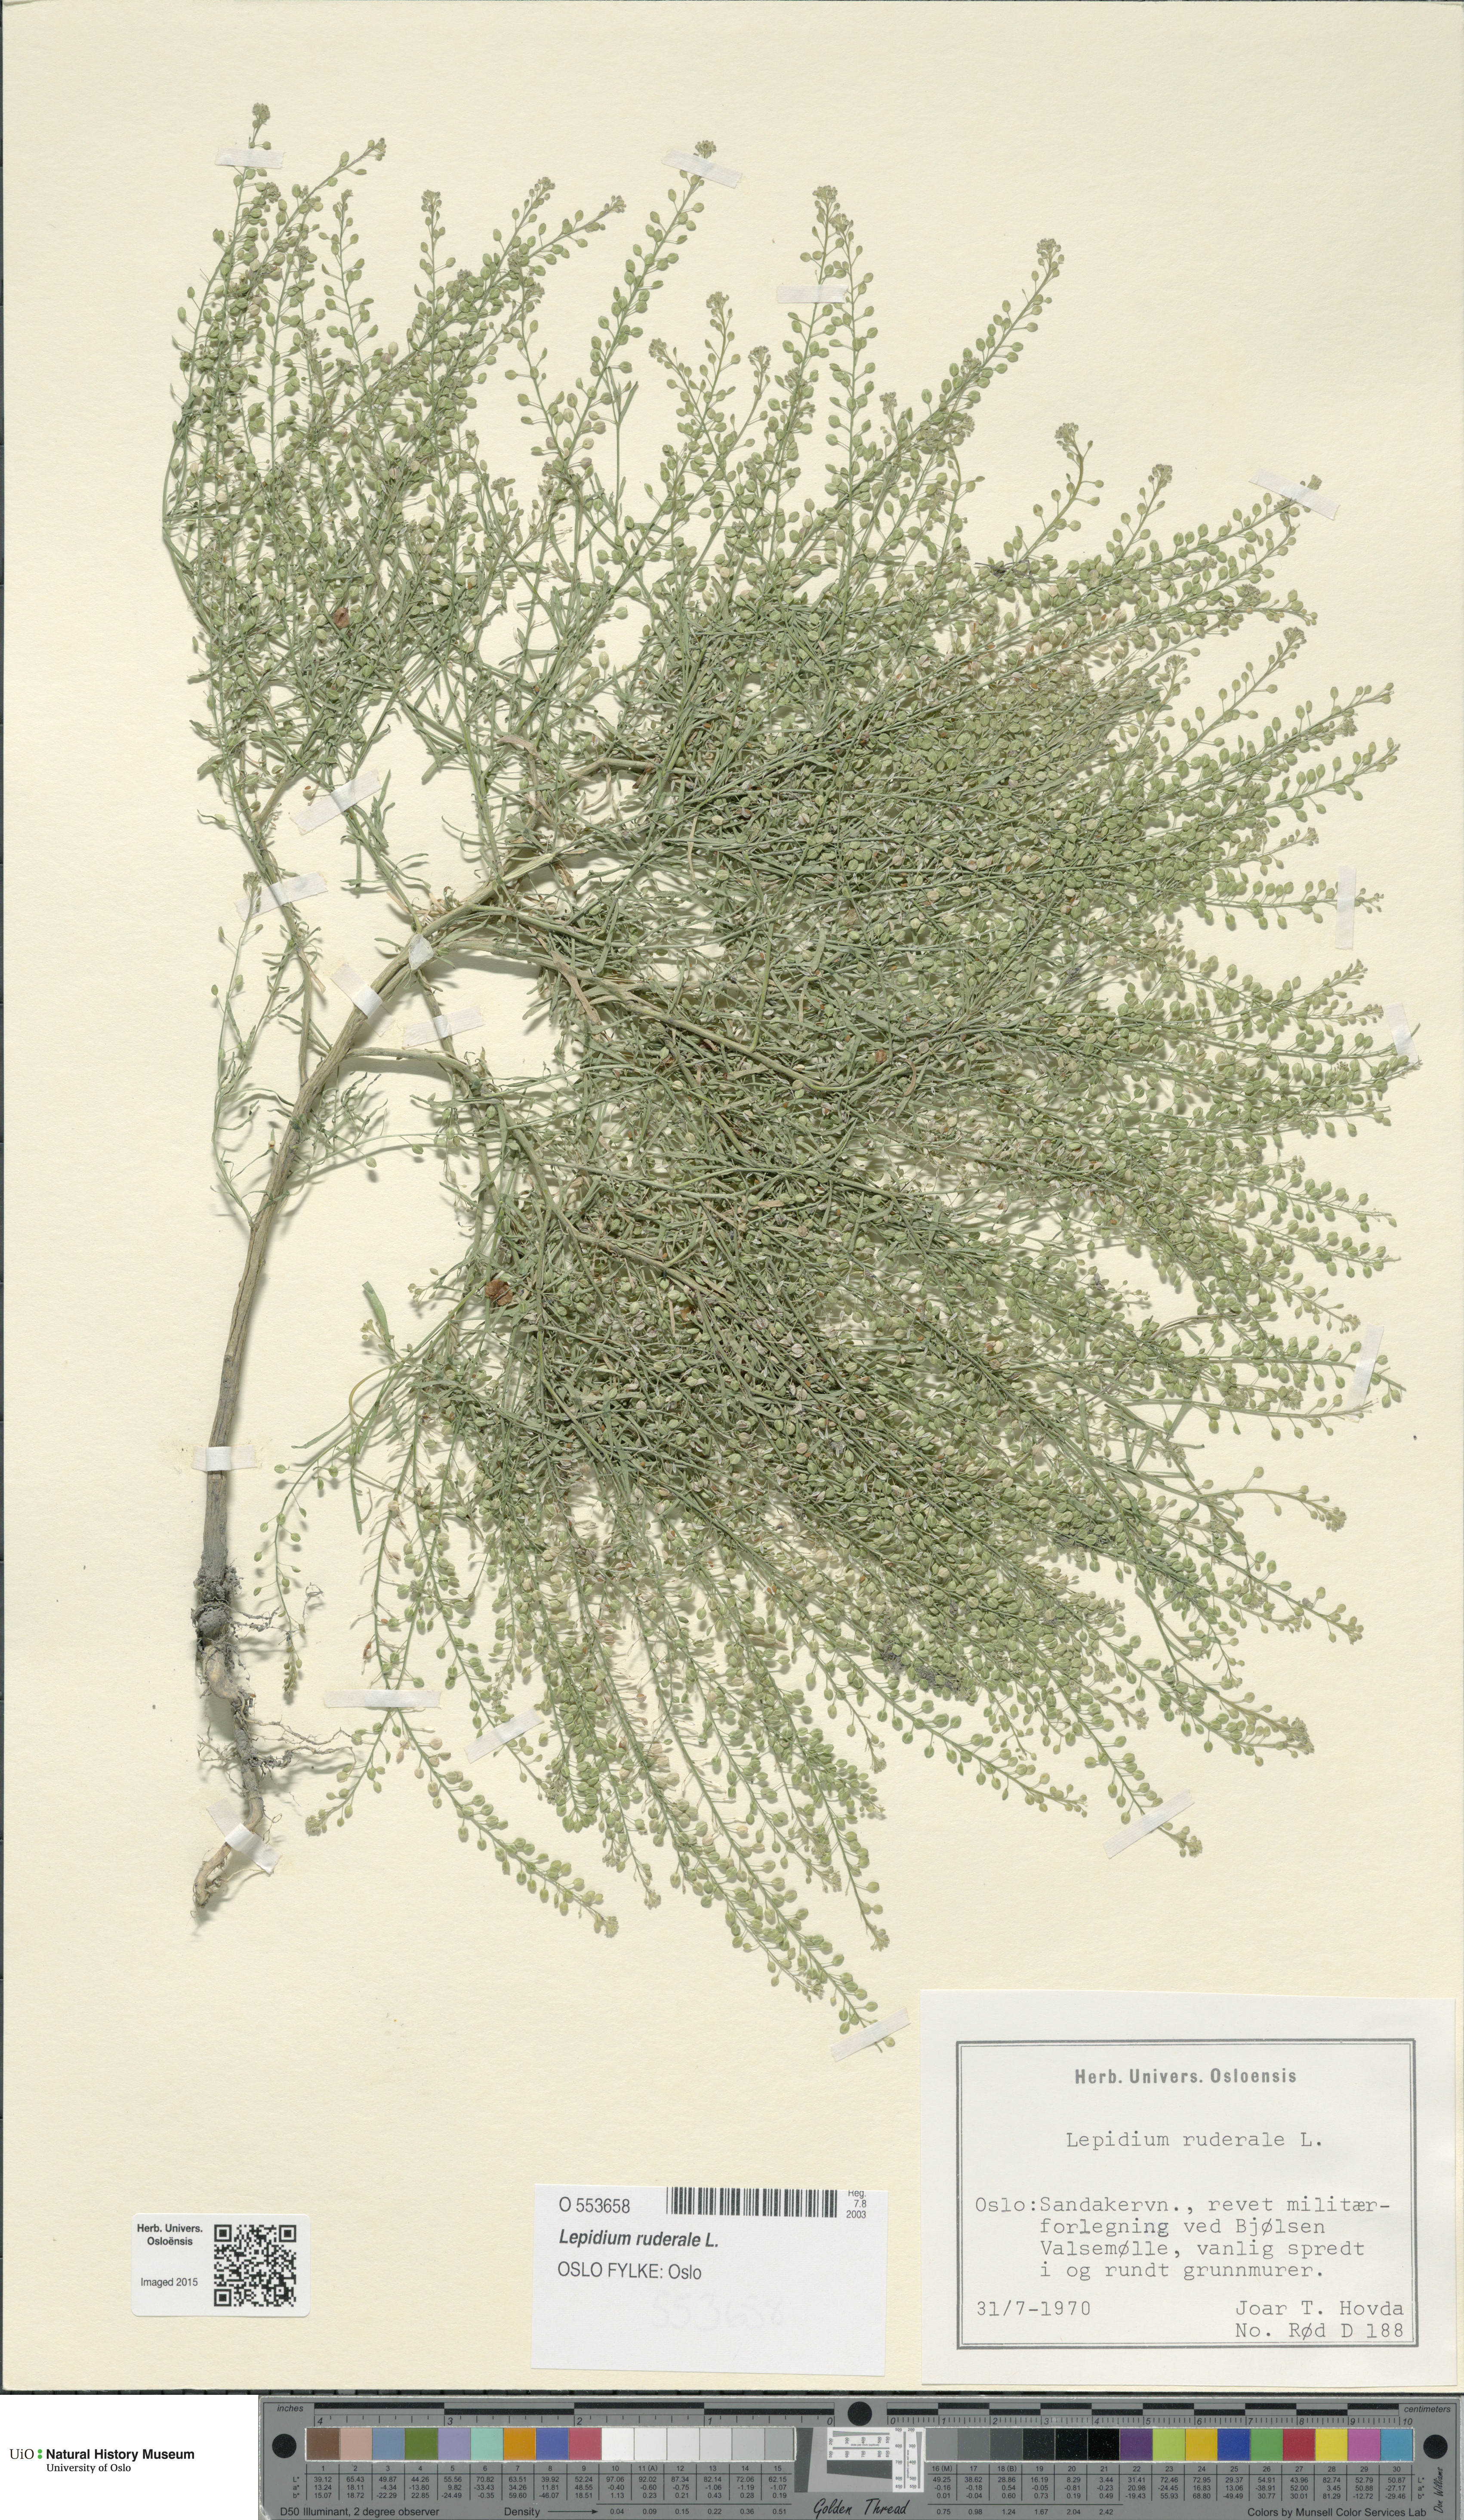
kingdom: Plantae
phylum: Tracheophyta
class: Magnoliopsida
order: Brassicales
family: Brassicaceae
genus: Lepidium
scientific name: Lepidium ruderale
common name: Narrow-leaved pepperwort
